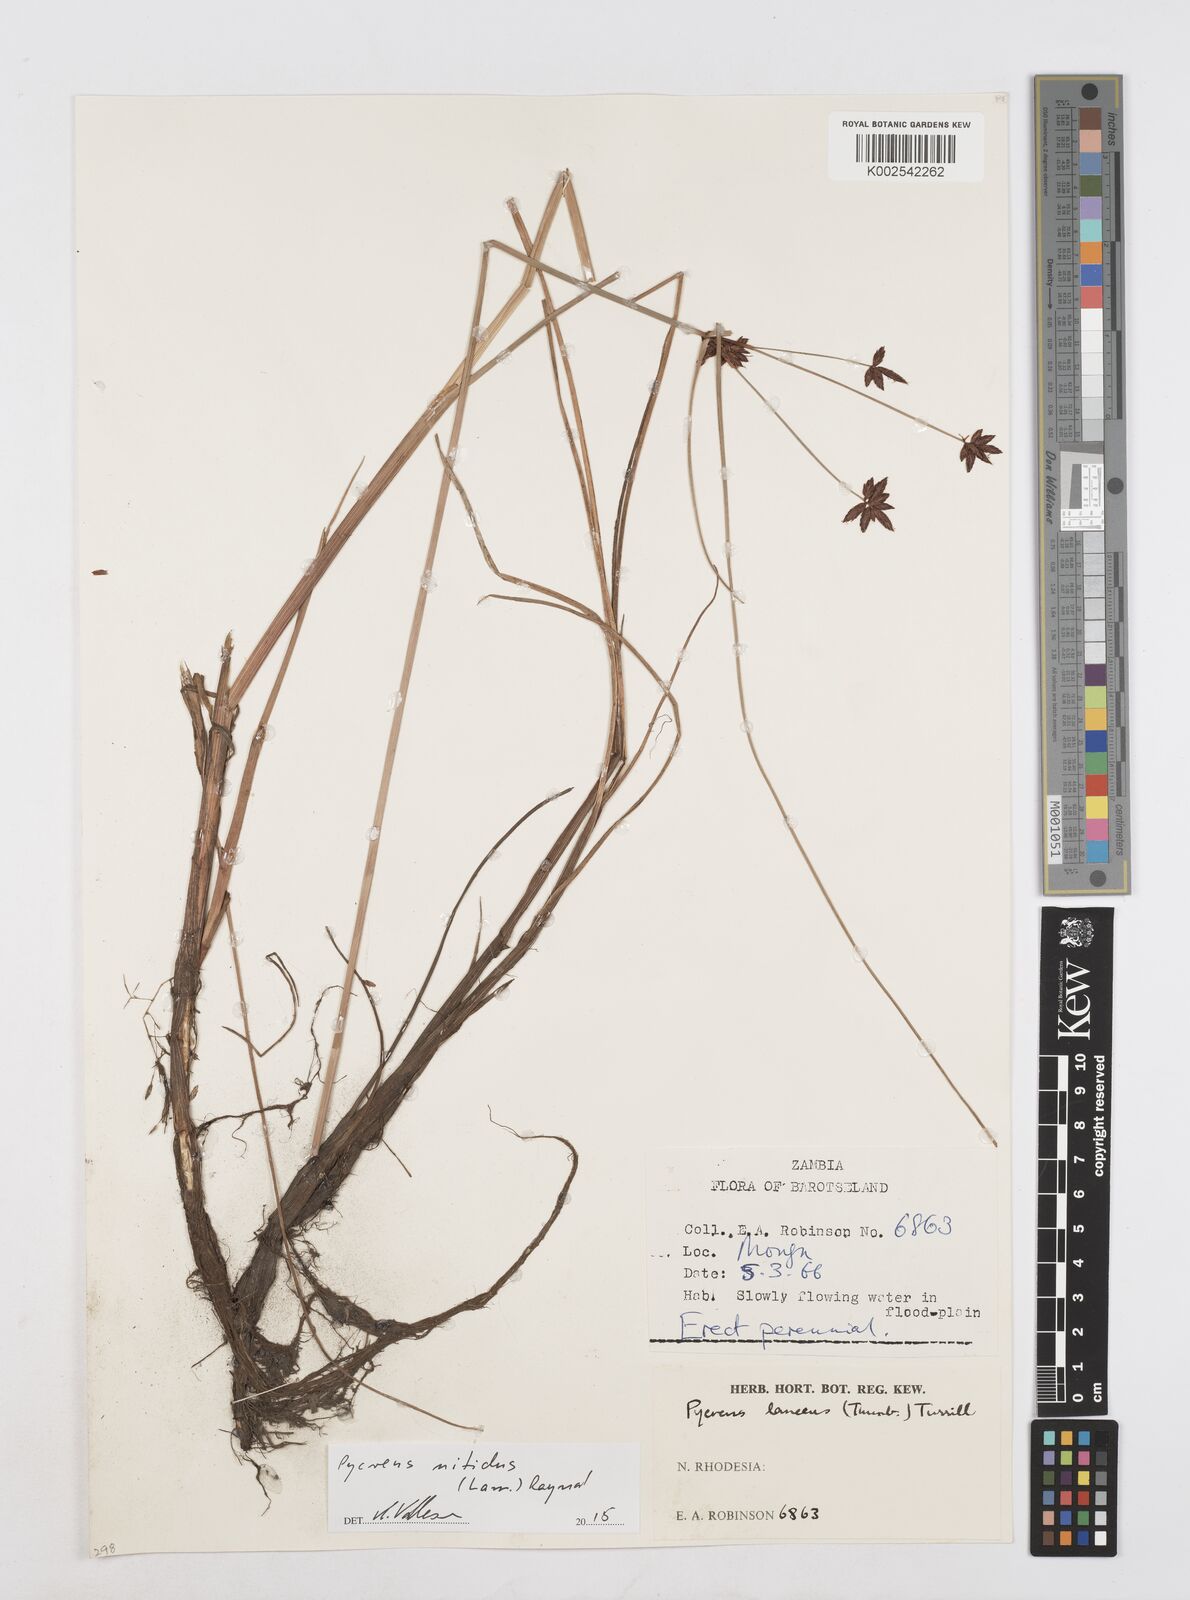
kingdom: Plantae
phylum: Tracheophyta
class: Liliopsida
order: Poales
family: Cyperaceae
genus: Cyperus
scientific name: Cyperus nitidus
